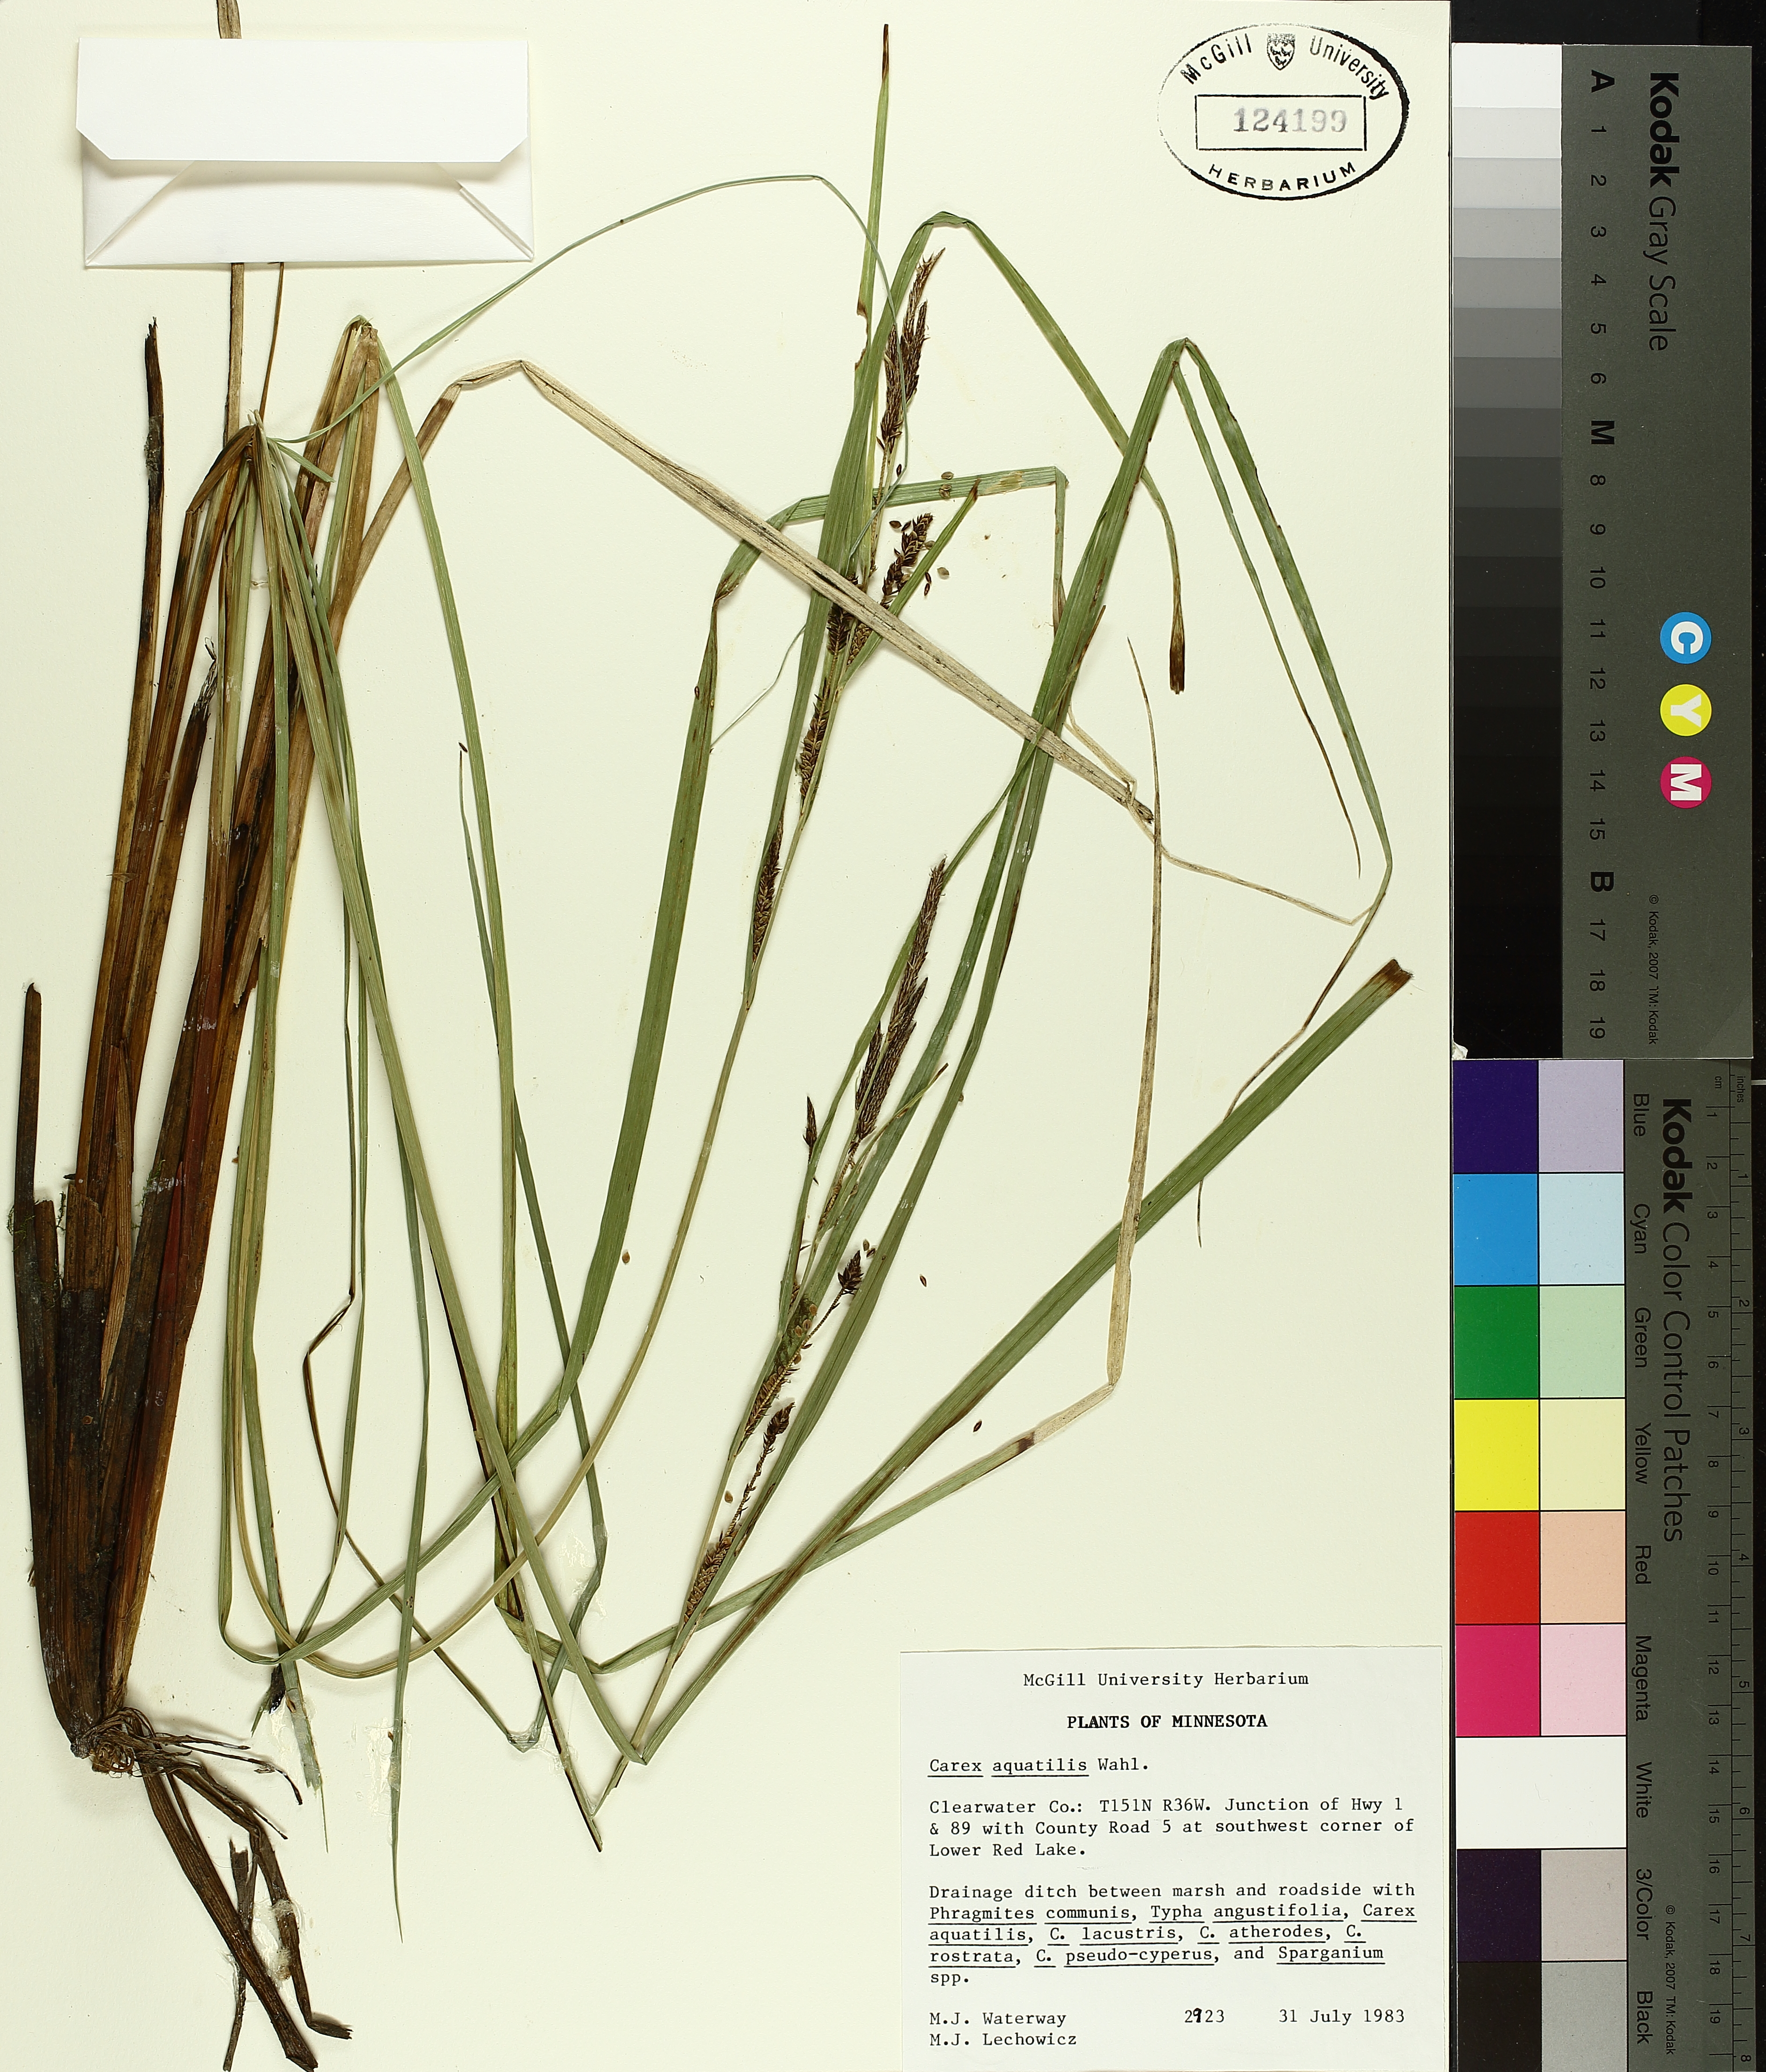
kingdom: Plantae
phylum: Tracheophyta
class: Liliopsida
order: Poales
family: Cyperaceae
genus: Carex
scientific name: Carex aquatilis
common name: Water sedge
